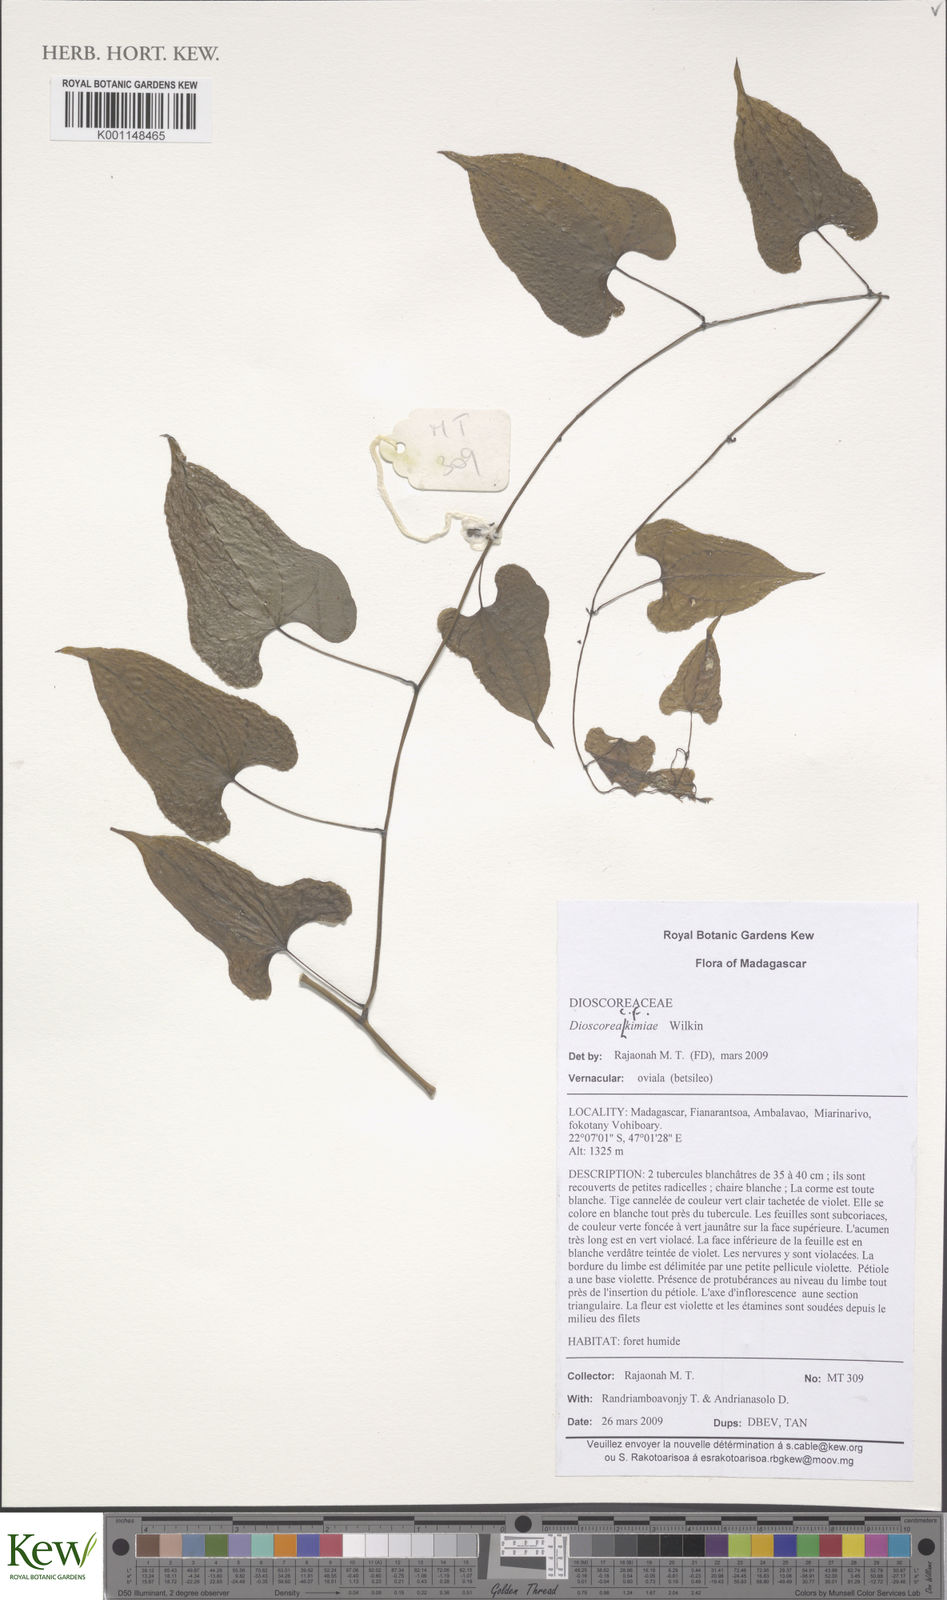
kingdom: Plantae
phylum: Tracheophyta
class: Liliopsida
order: Dioscoreales
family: Dioscoreaceae
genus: Dioscorea
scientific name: Dioscorea kimiae
